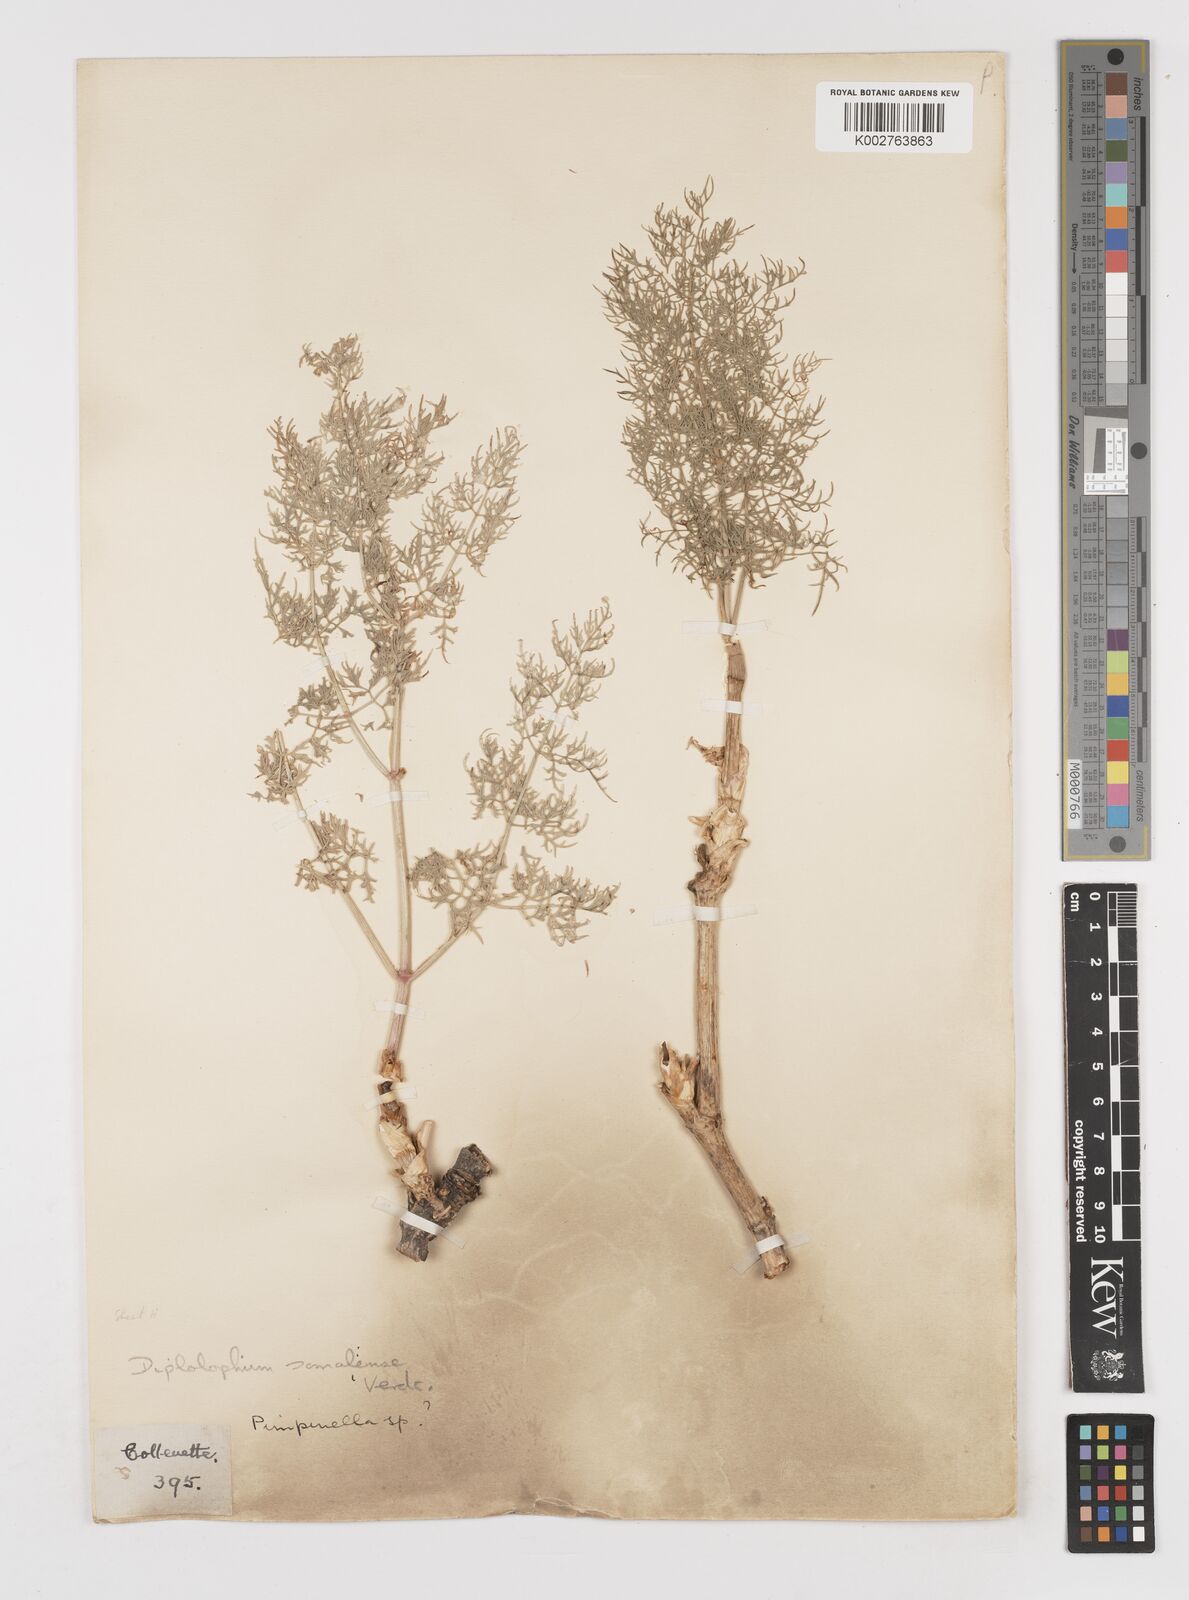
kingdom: Plantae
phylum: Tracheophyta
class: Magnoliopsida
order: Apiales
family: Apiaceae
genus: Diplolophium
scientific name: Diplolophium somaliense
